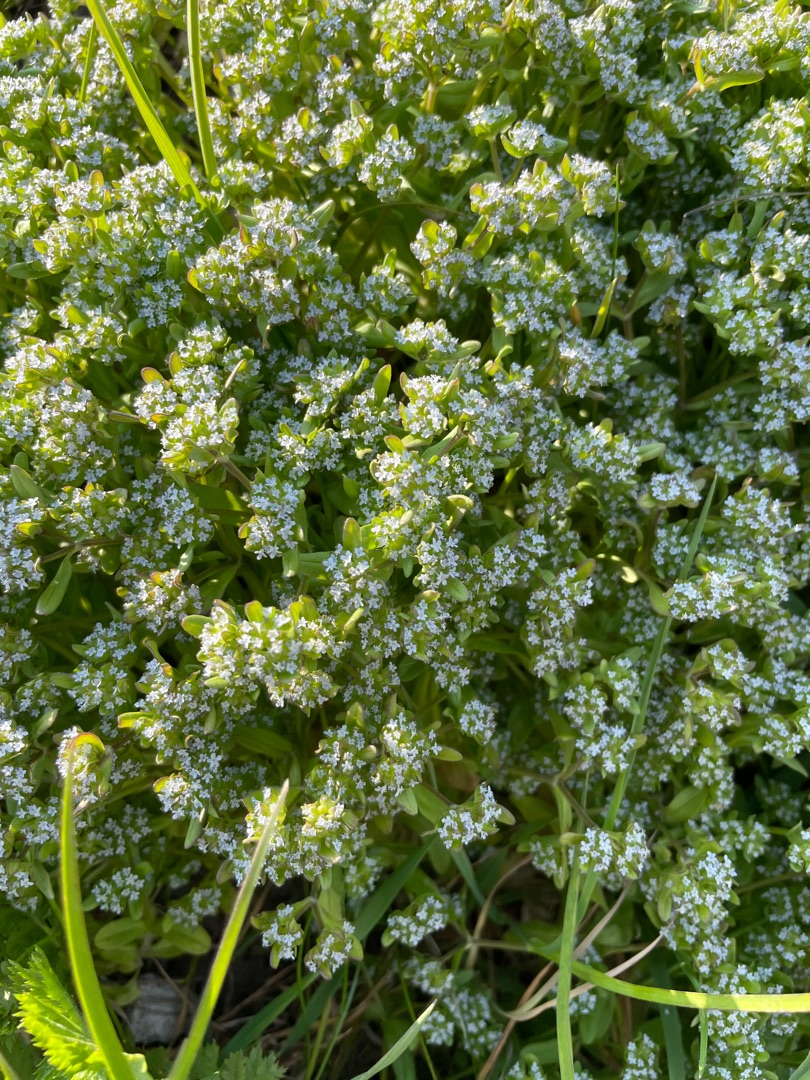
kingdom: Plantae
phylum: Tracheophyta
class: Magnoliopsida
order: Dipsacales
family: Caprifoliaceae
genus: Valerianella
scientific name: Valerianella locusta
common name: Tandfri vårsalat
